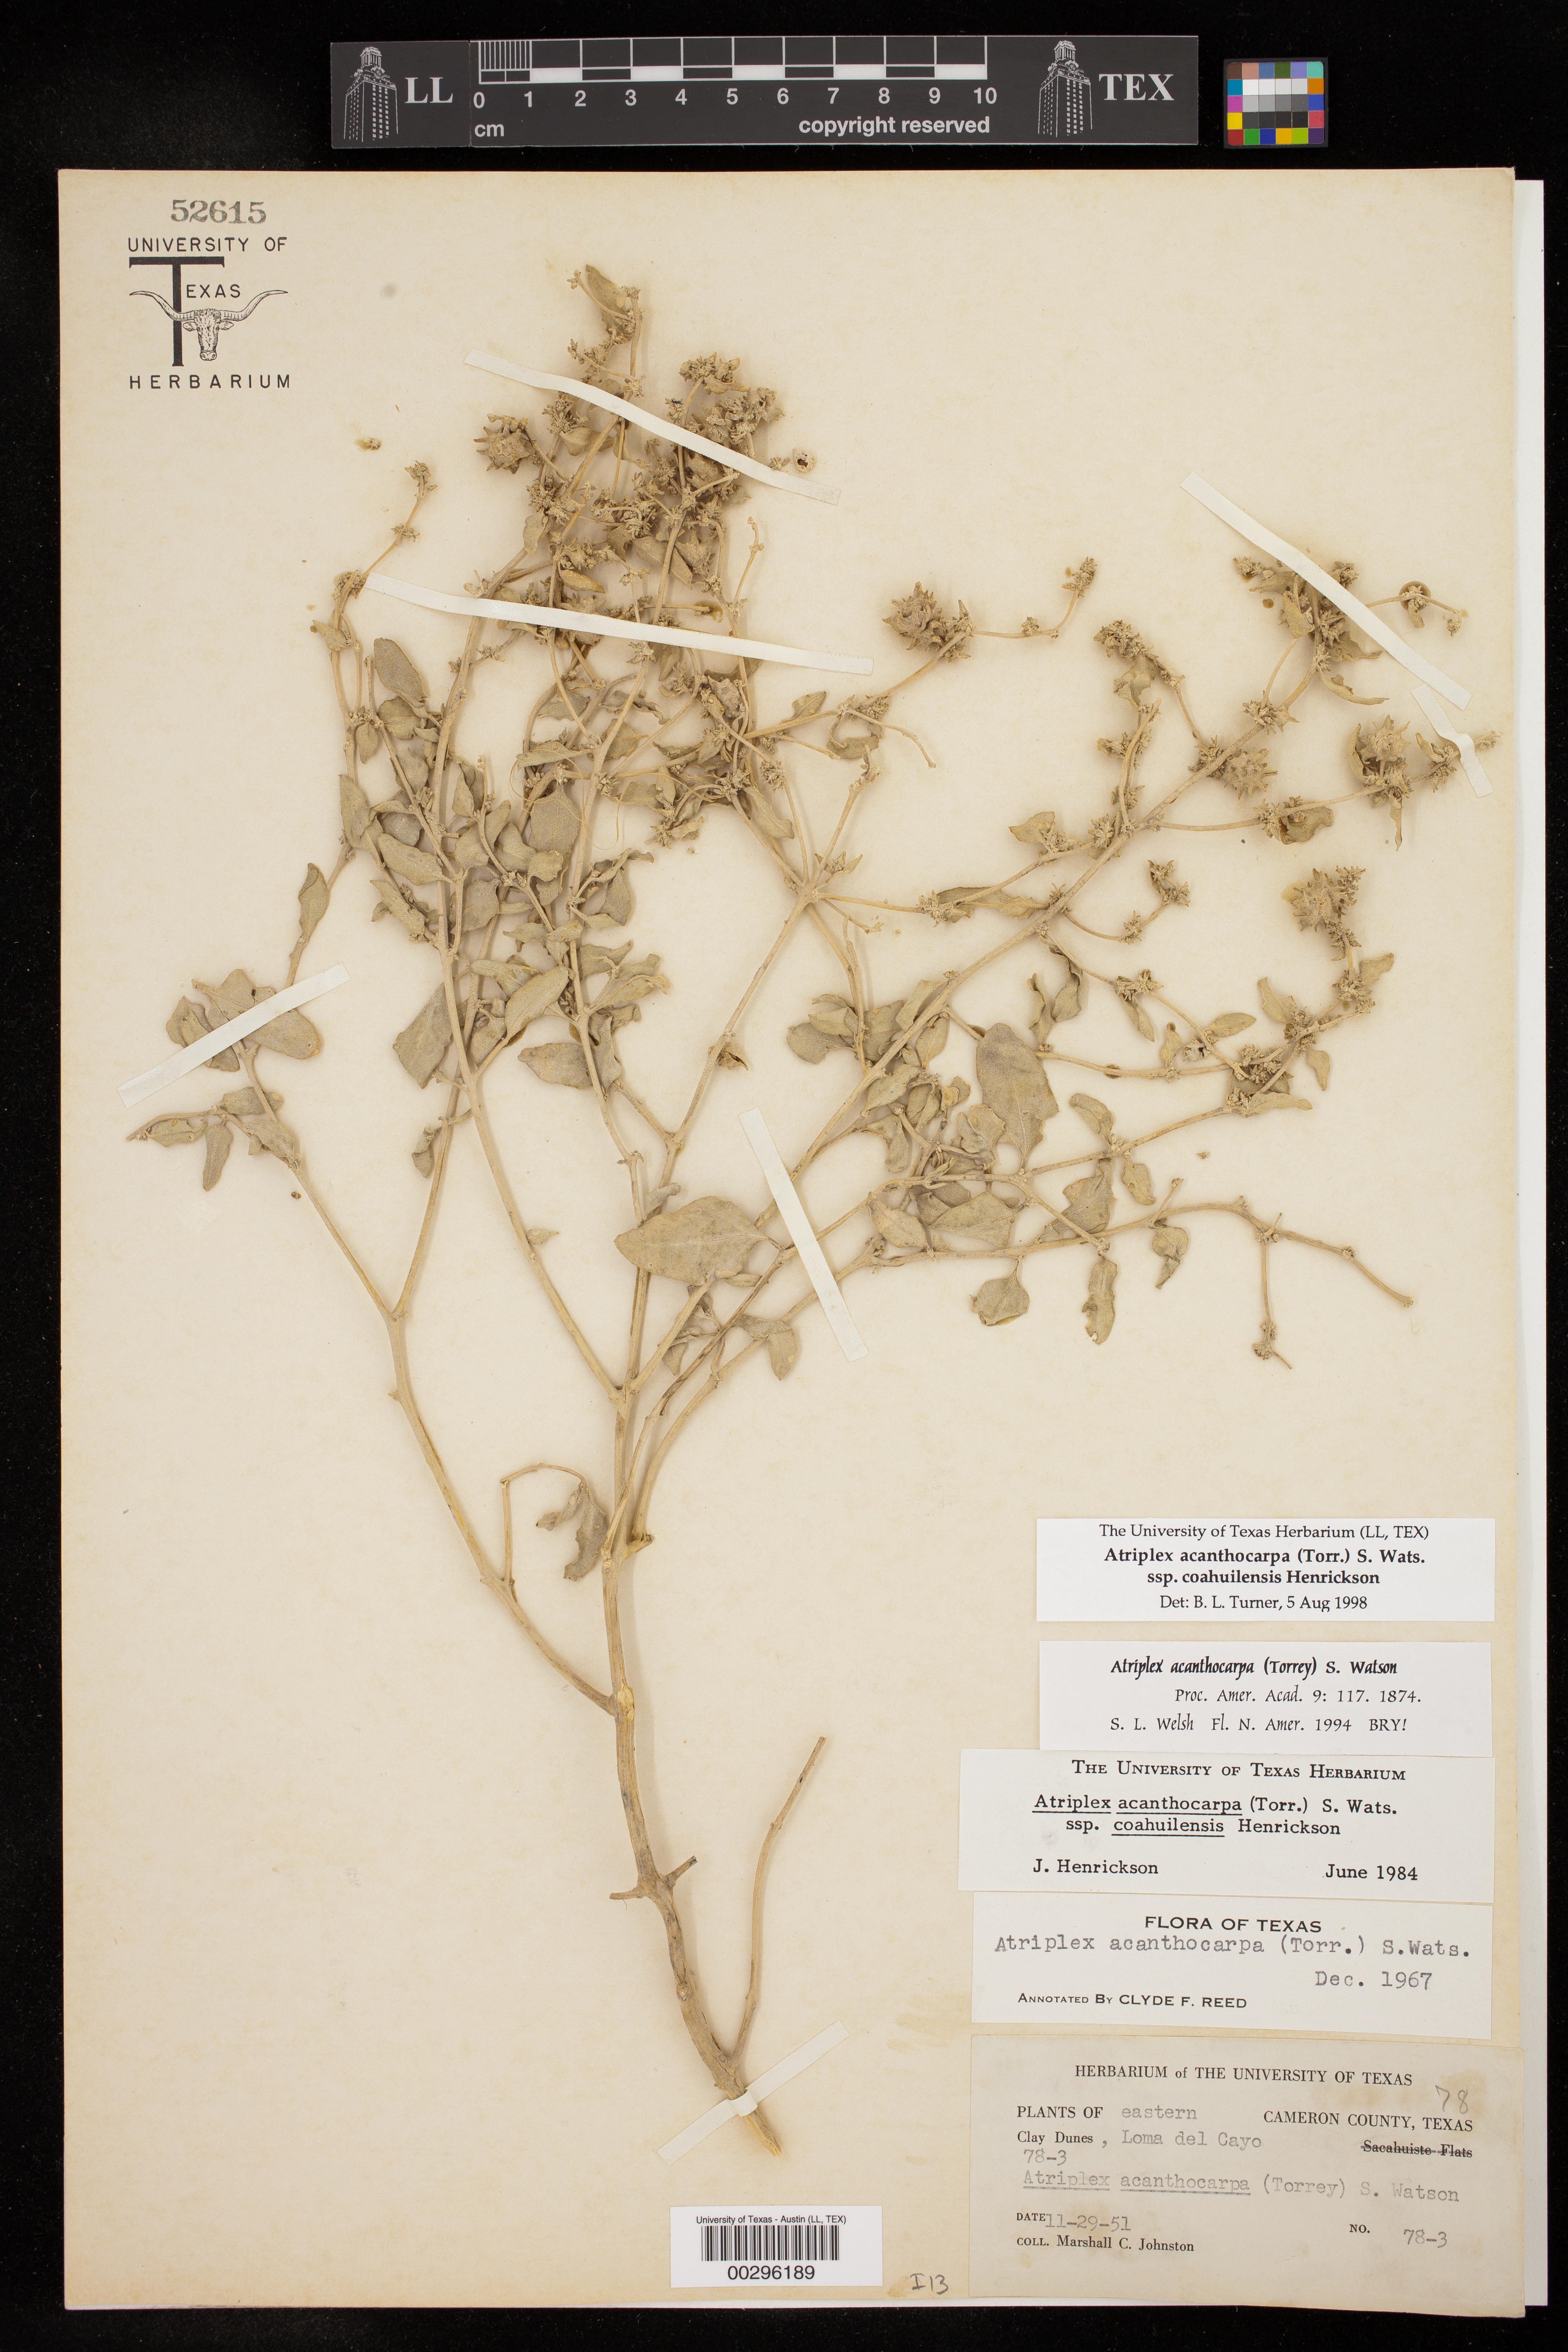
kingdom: Plantae
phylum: Tracheophyta
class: Magnoliopsida
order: Caryophyllales
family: Amaranthaceae
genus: Atriplex
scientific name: Atriplex acanthocarpa
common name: Burscale
